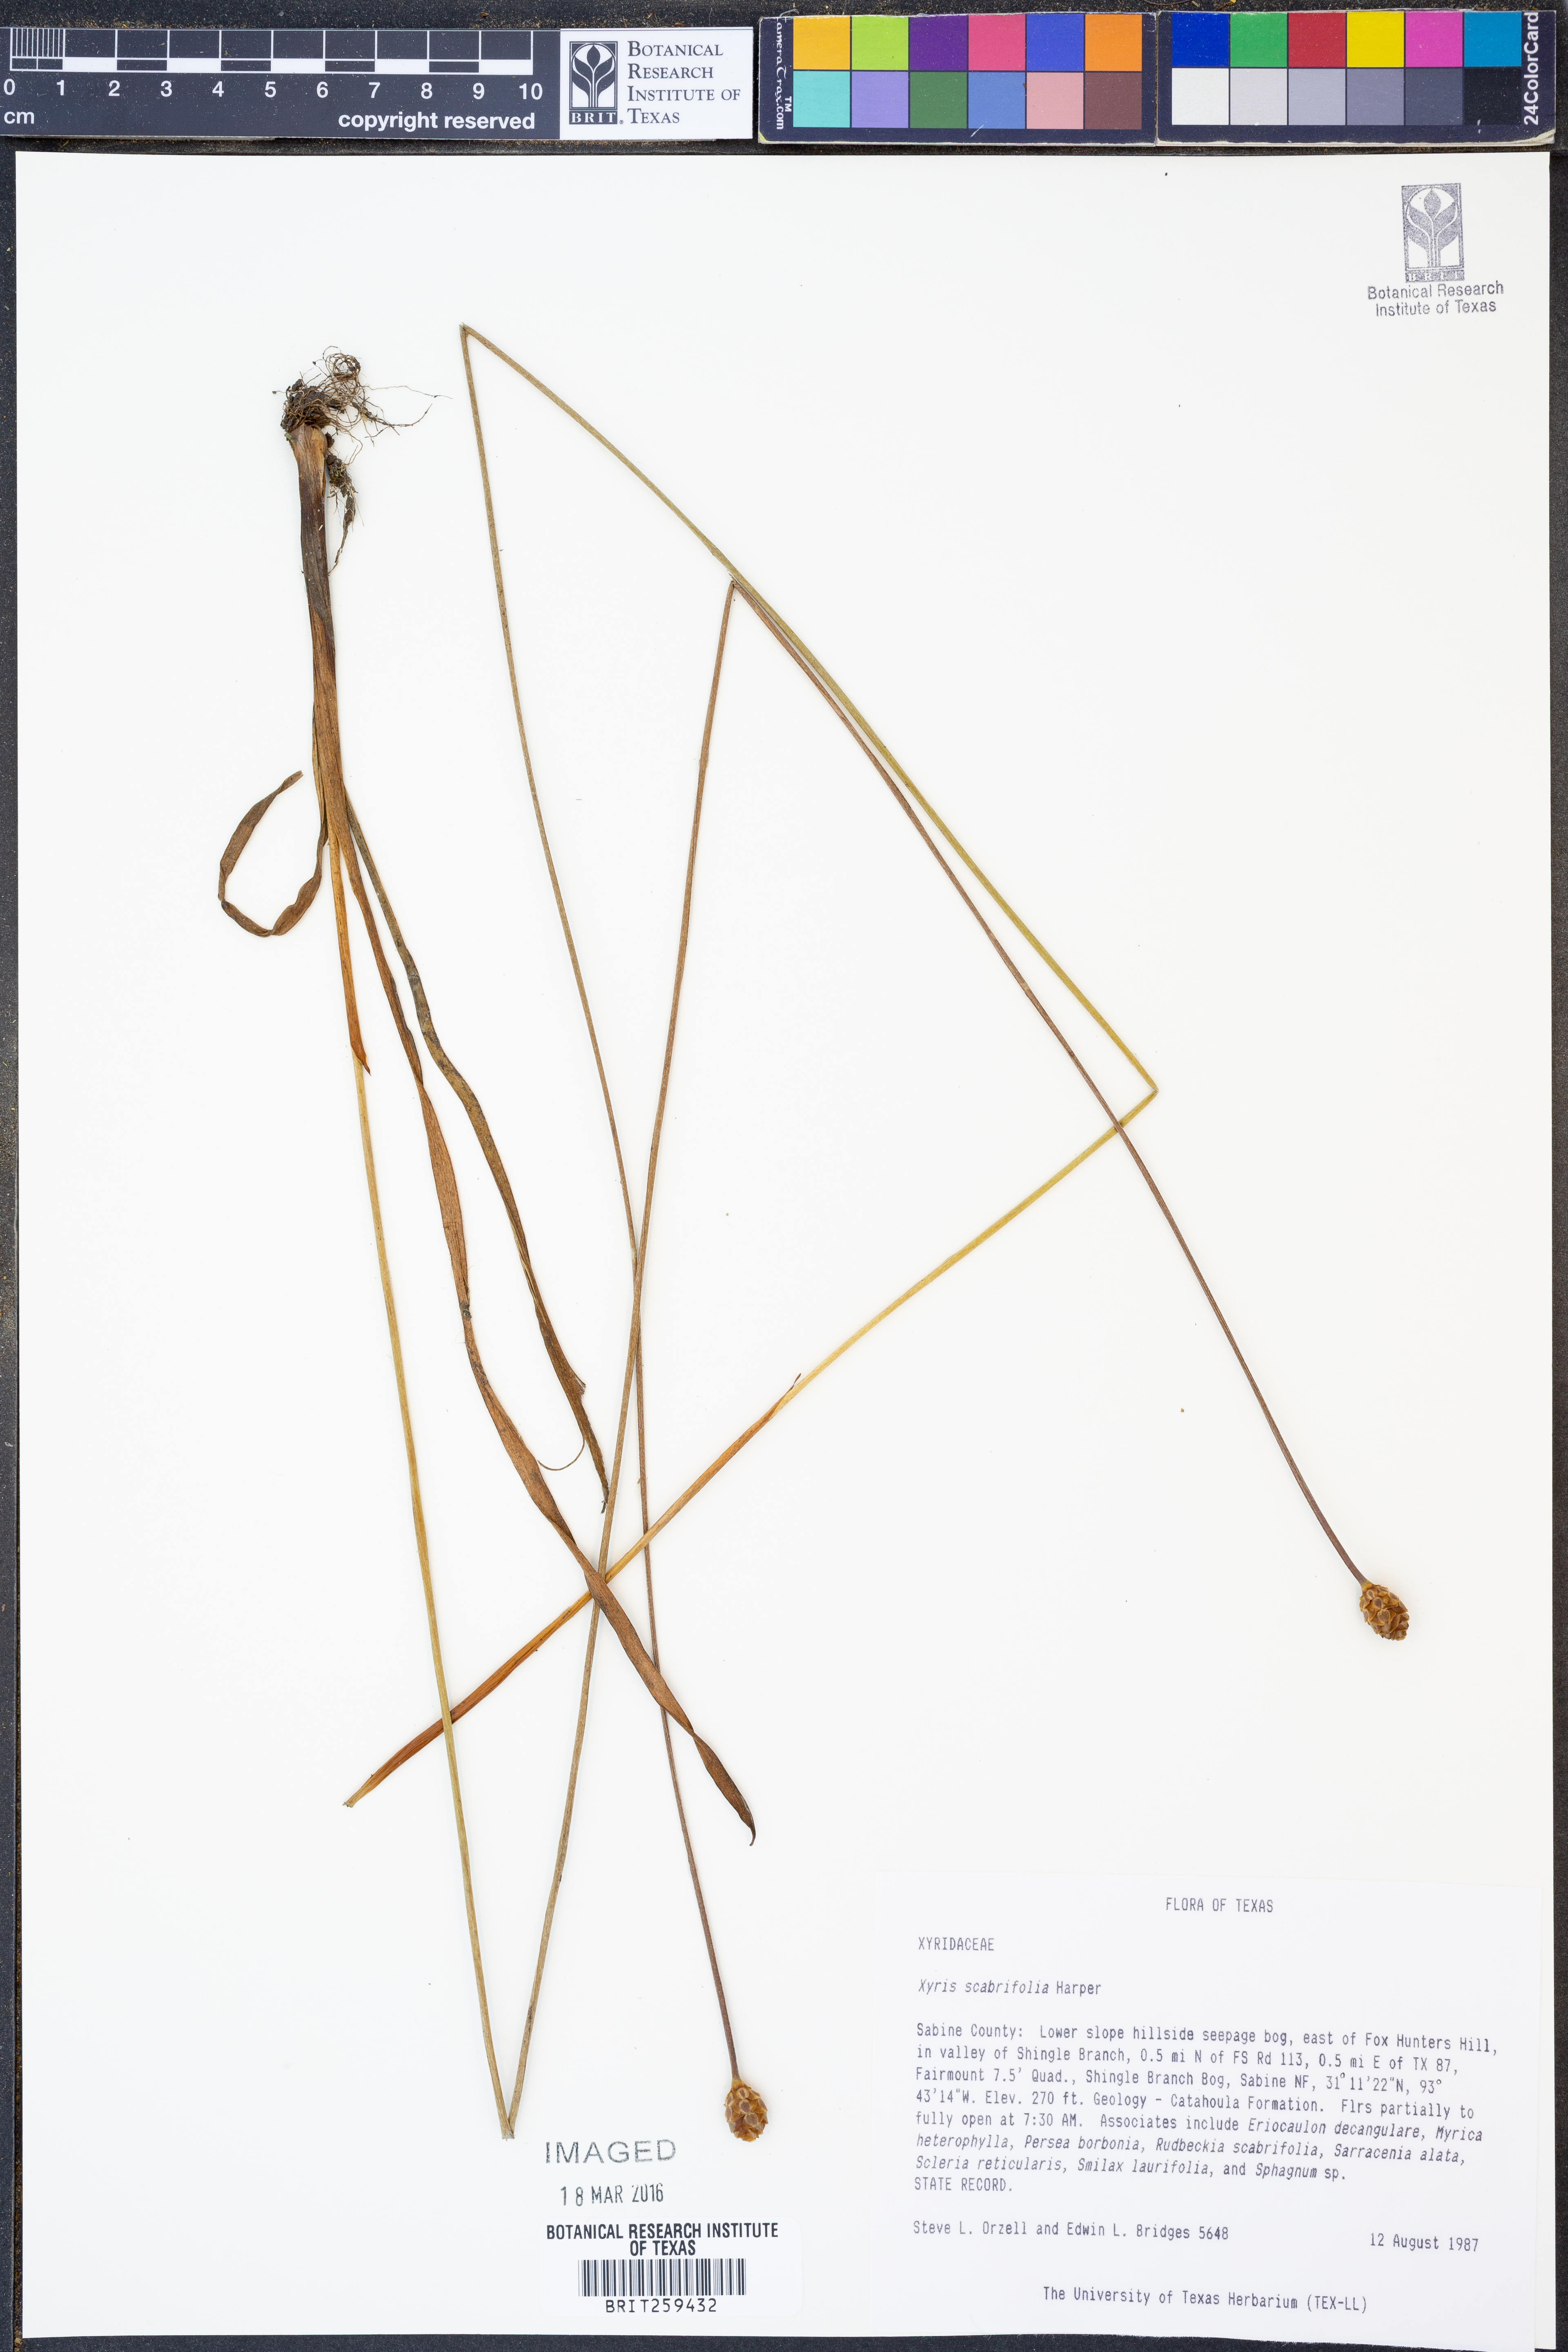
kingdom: Plantae
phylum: Tracheophyta
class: Liliopsida
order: Poales
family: Xyridaceae
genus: Xyris
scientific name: Xyris scabrifolia
